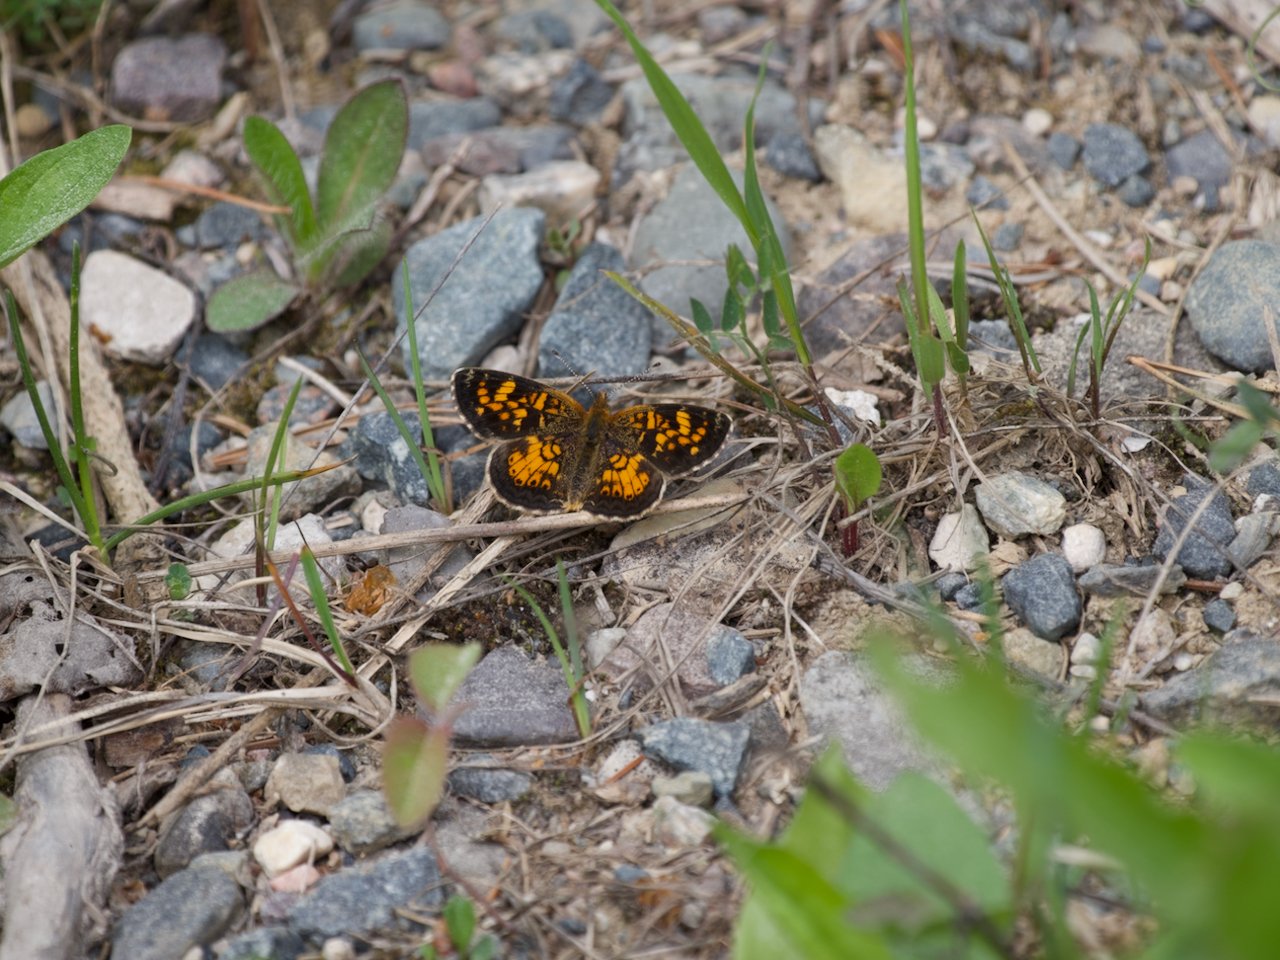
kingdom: Animalia
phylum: Arthropoda
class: Insecta
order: Lepidoptera
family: Nymphalidae
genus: Phyciodes
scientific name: Phyciodes
